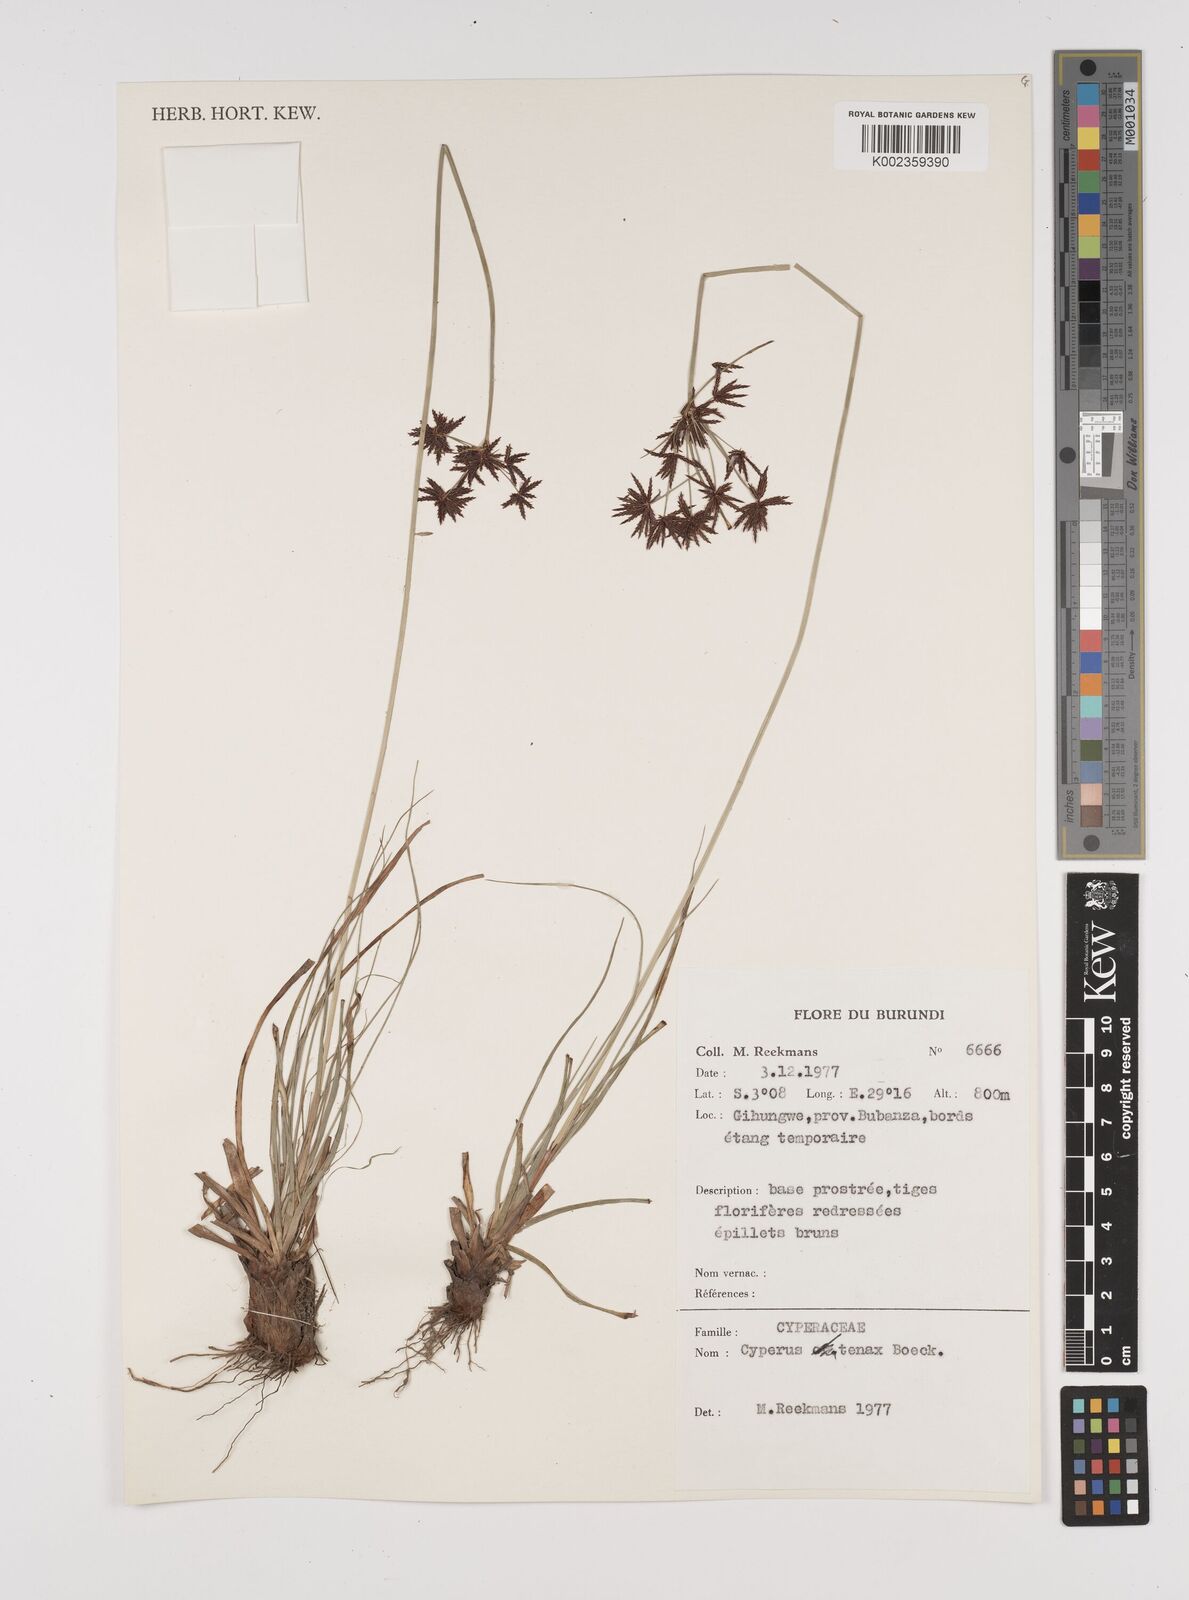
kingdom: Plantae
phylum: Tracheophyta
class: Liliopsida
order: Poales
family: Cyperaceae
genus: Cyperus
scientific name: Cyperus tenax
